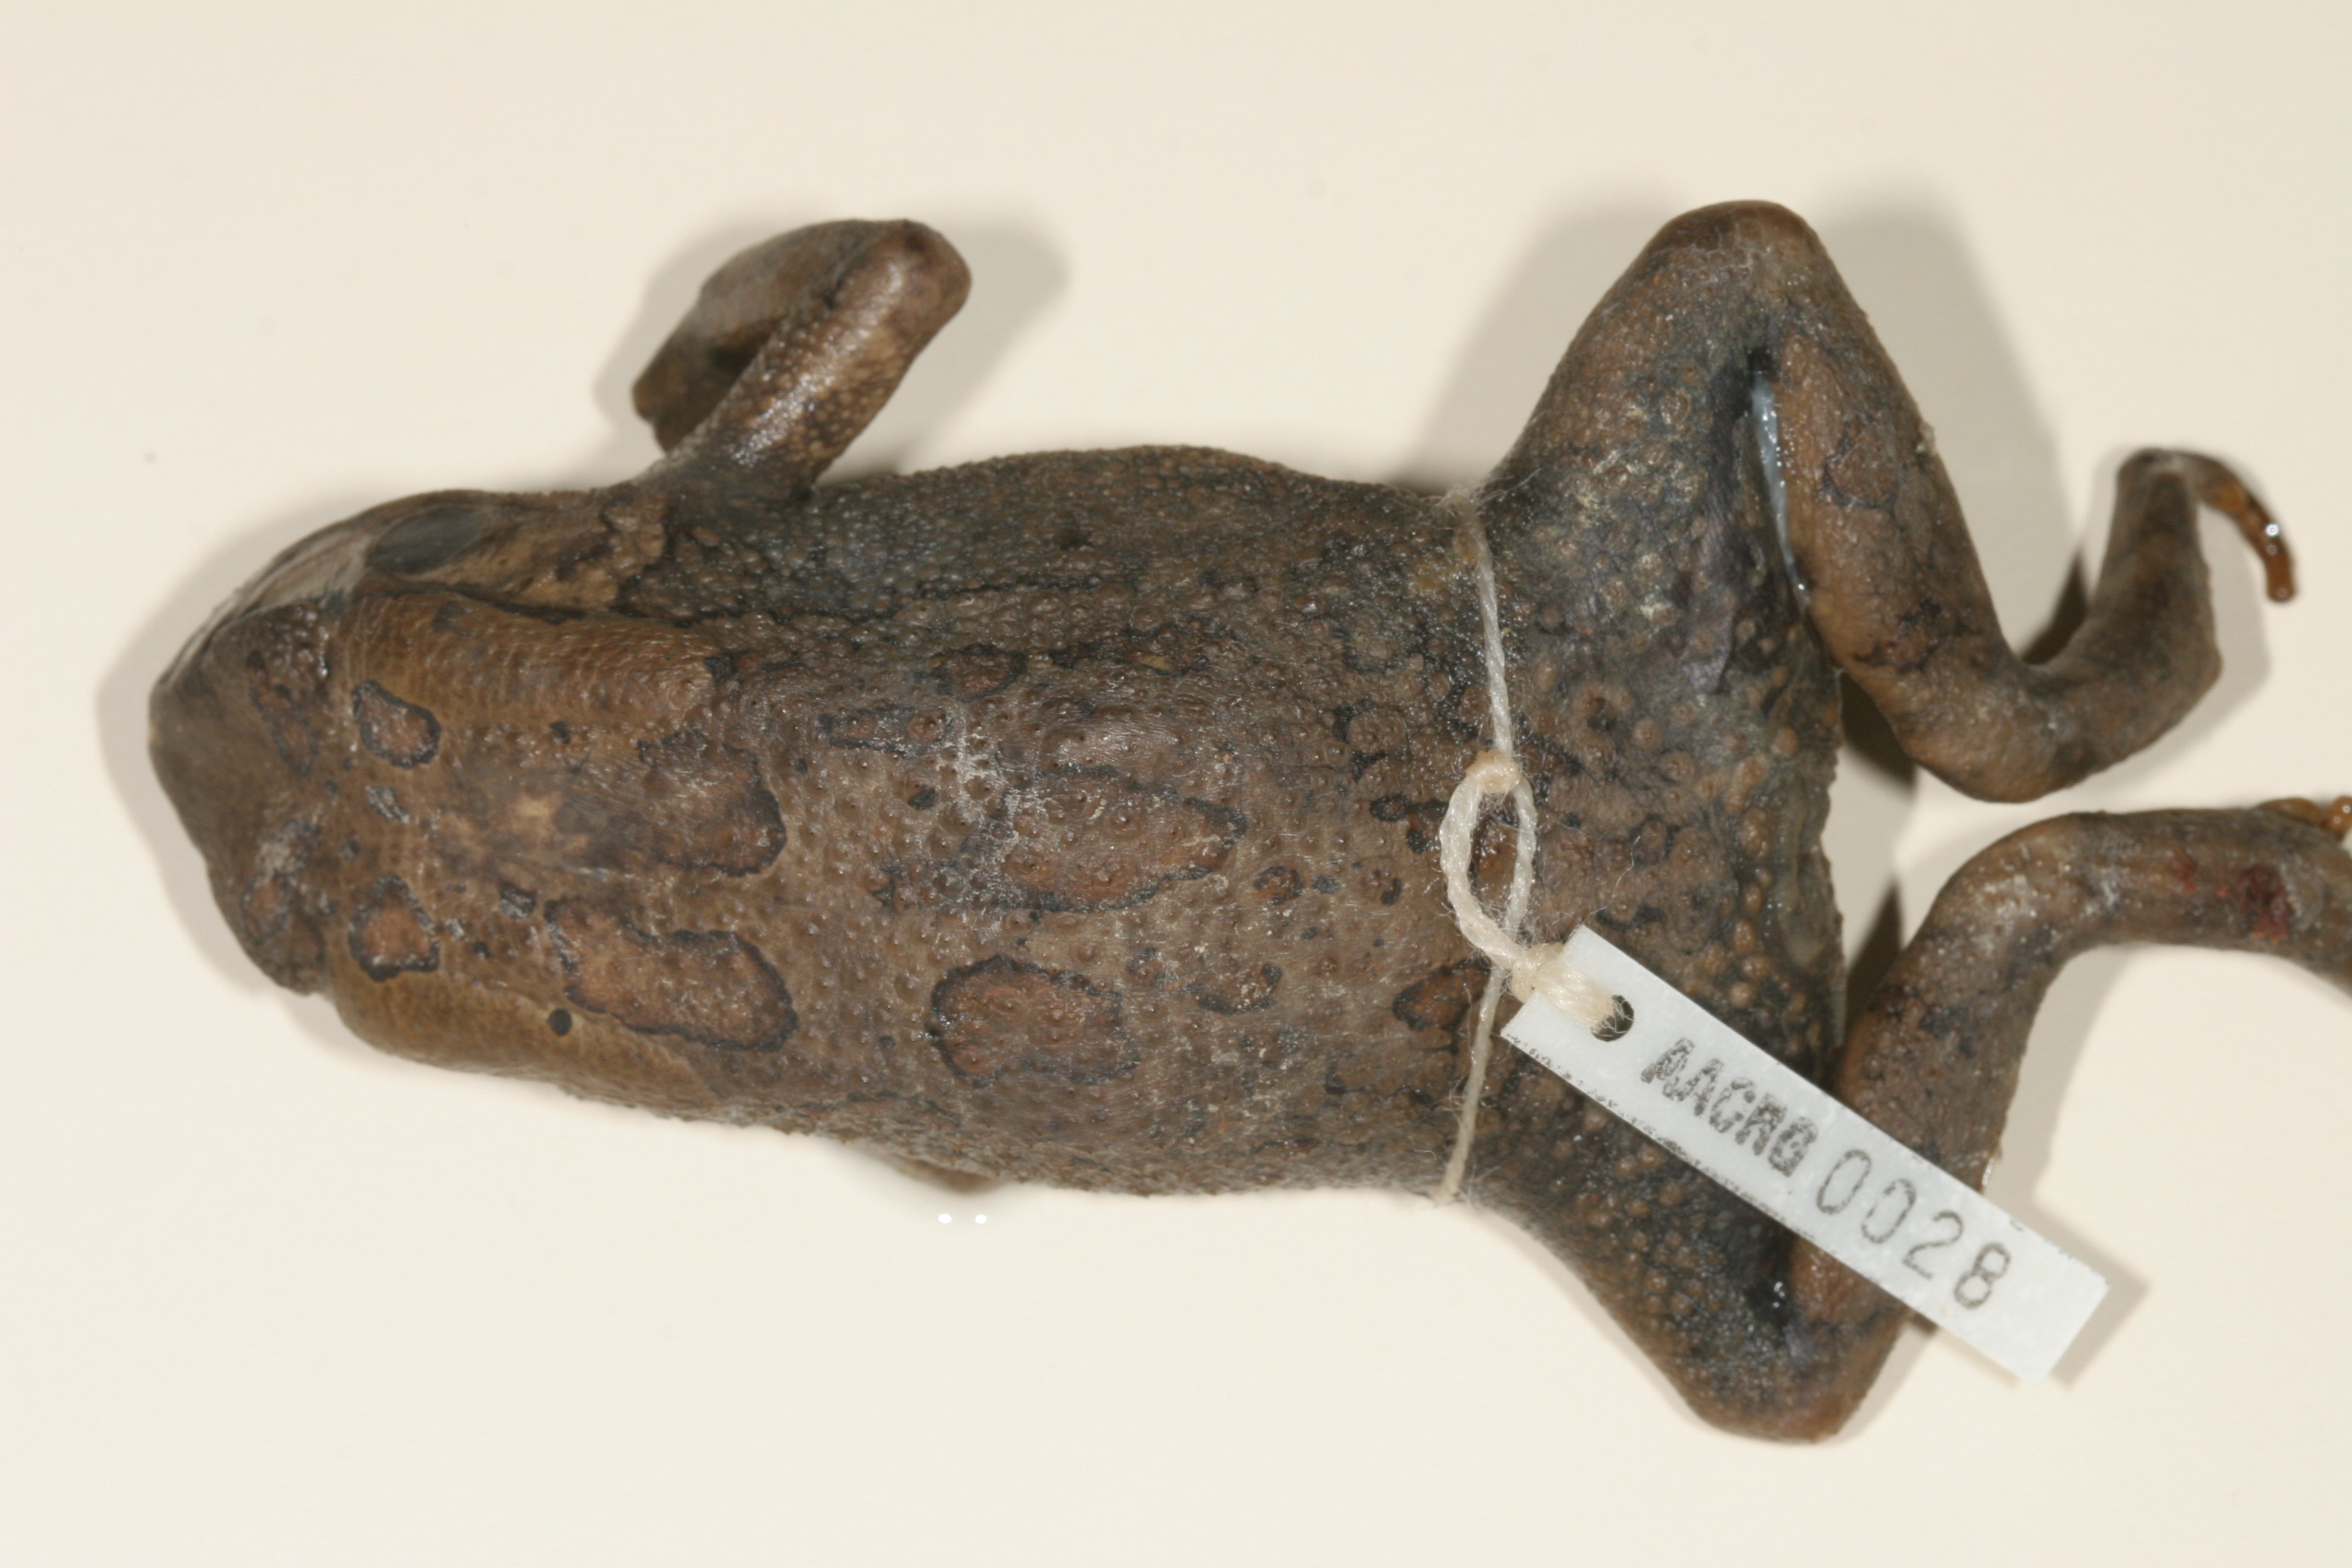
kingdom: Animalia
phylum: Chordata
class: Amphibia
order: Anura
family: Bufonidae
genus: Sclerophrys
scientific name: Sclerophrys garmani
